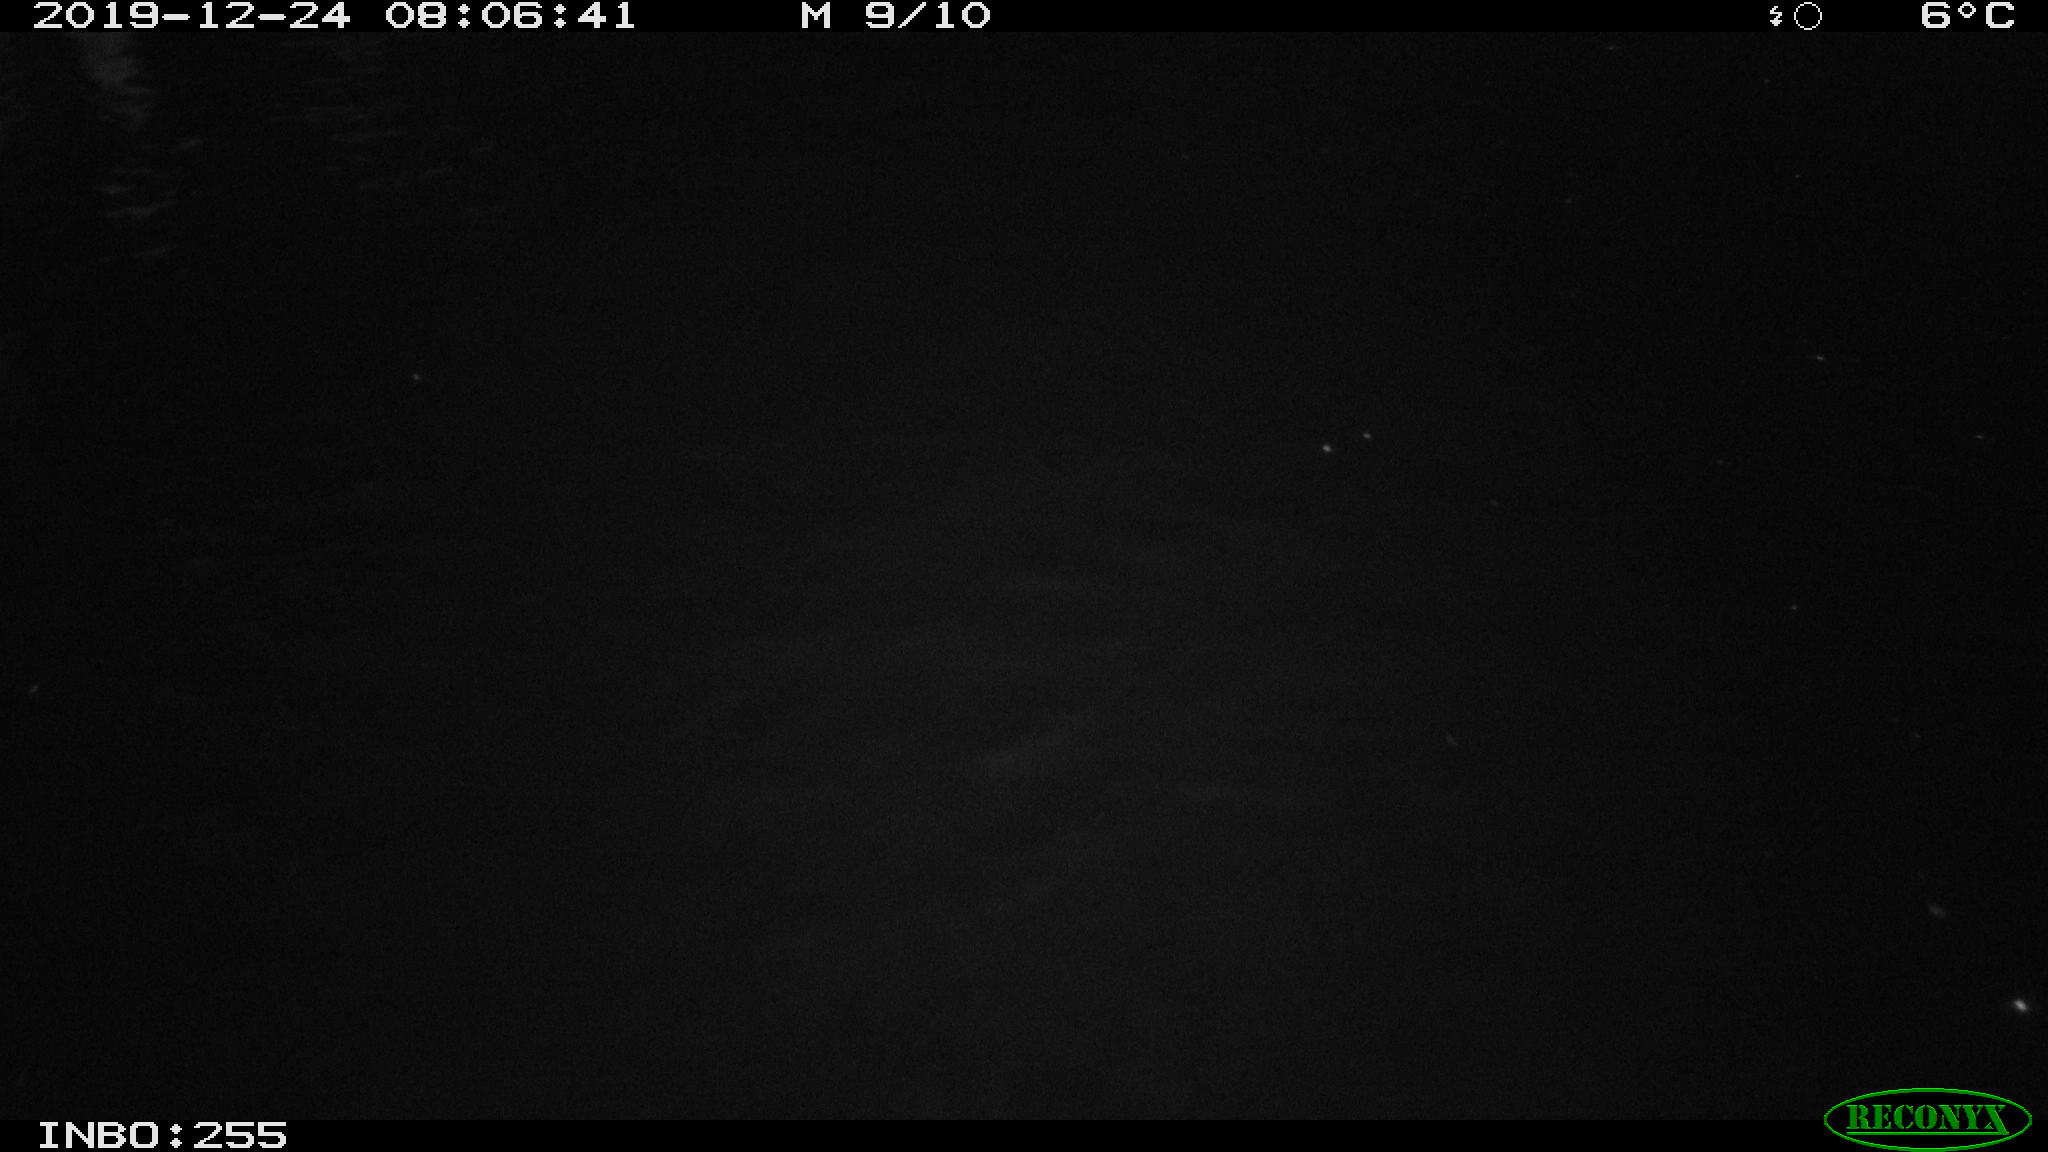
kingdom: Animalia
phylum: Chordata
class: Aves
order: Anseriformes
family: Anatidae
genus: Anas
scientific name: Anas platyrhynchos
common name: Mallard
